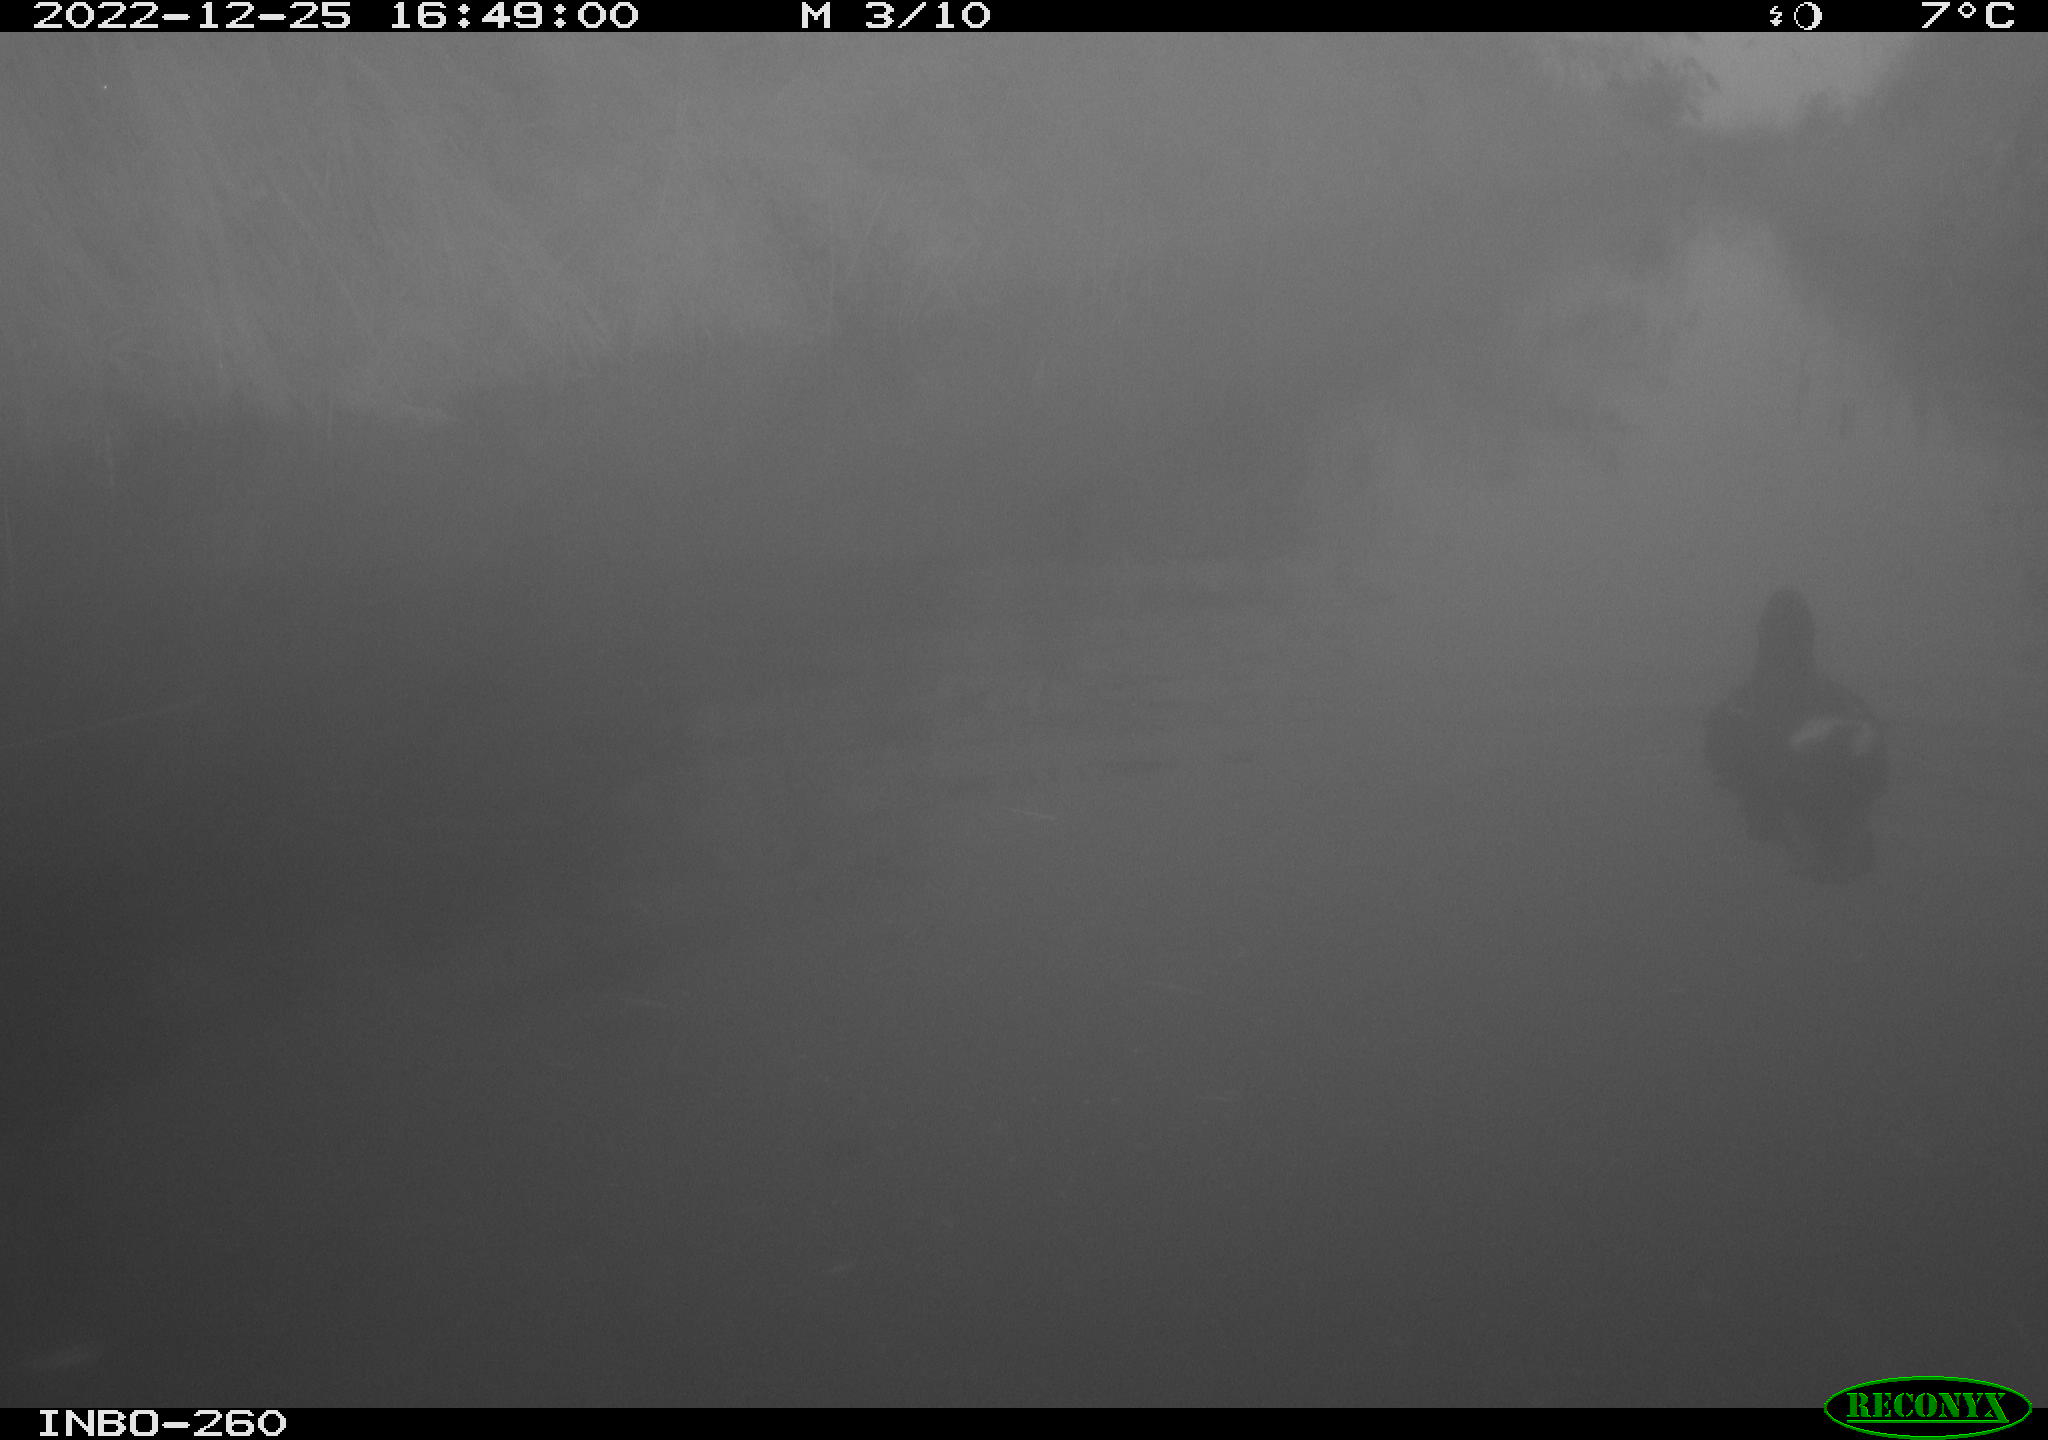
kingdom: Animalia
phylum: Chordata
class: Aves
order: Gruiformes
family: Rallidae
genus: Gallinula
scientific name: Gallinula chloropus
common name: Common moorhen
